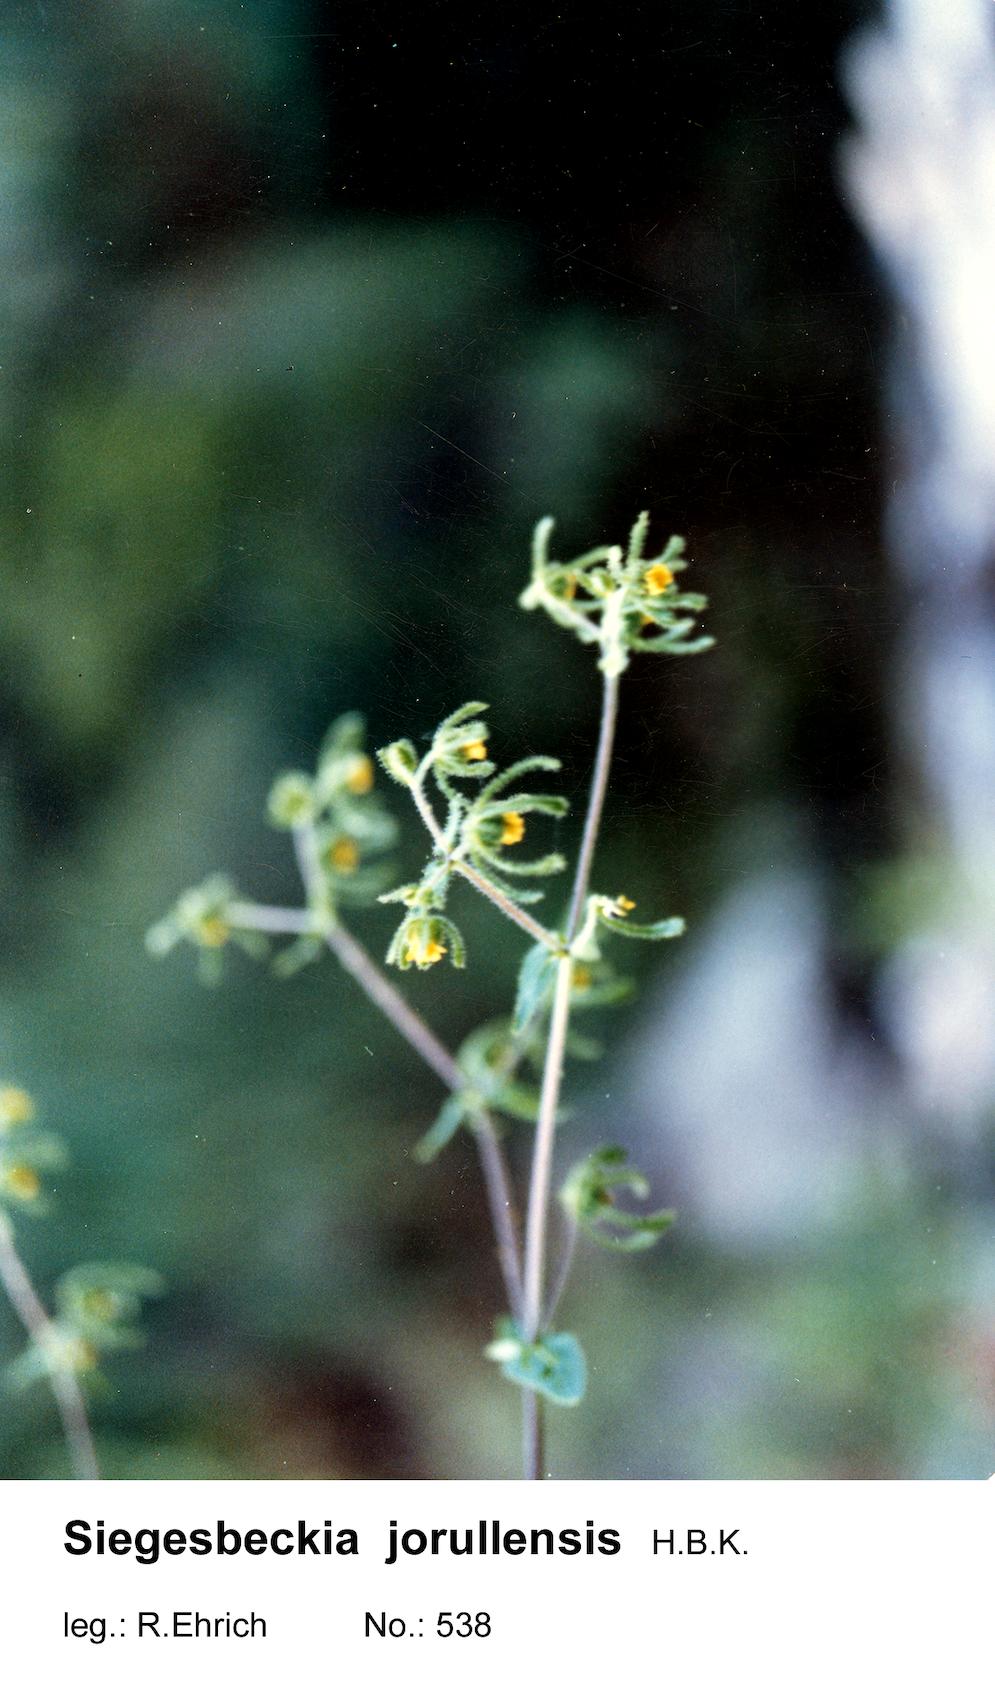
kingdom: Plantae
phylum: Tracheophyta
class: Magnoliopsida
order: Asterales
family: Asteraceae
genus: Sigesbeckia
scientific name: Sigesbeckia jorullensis
